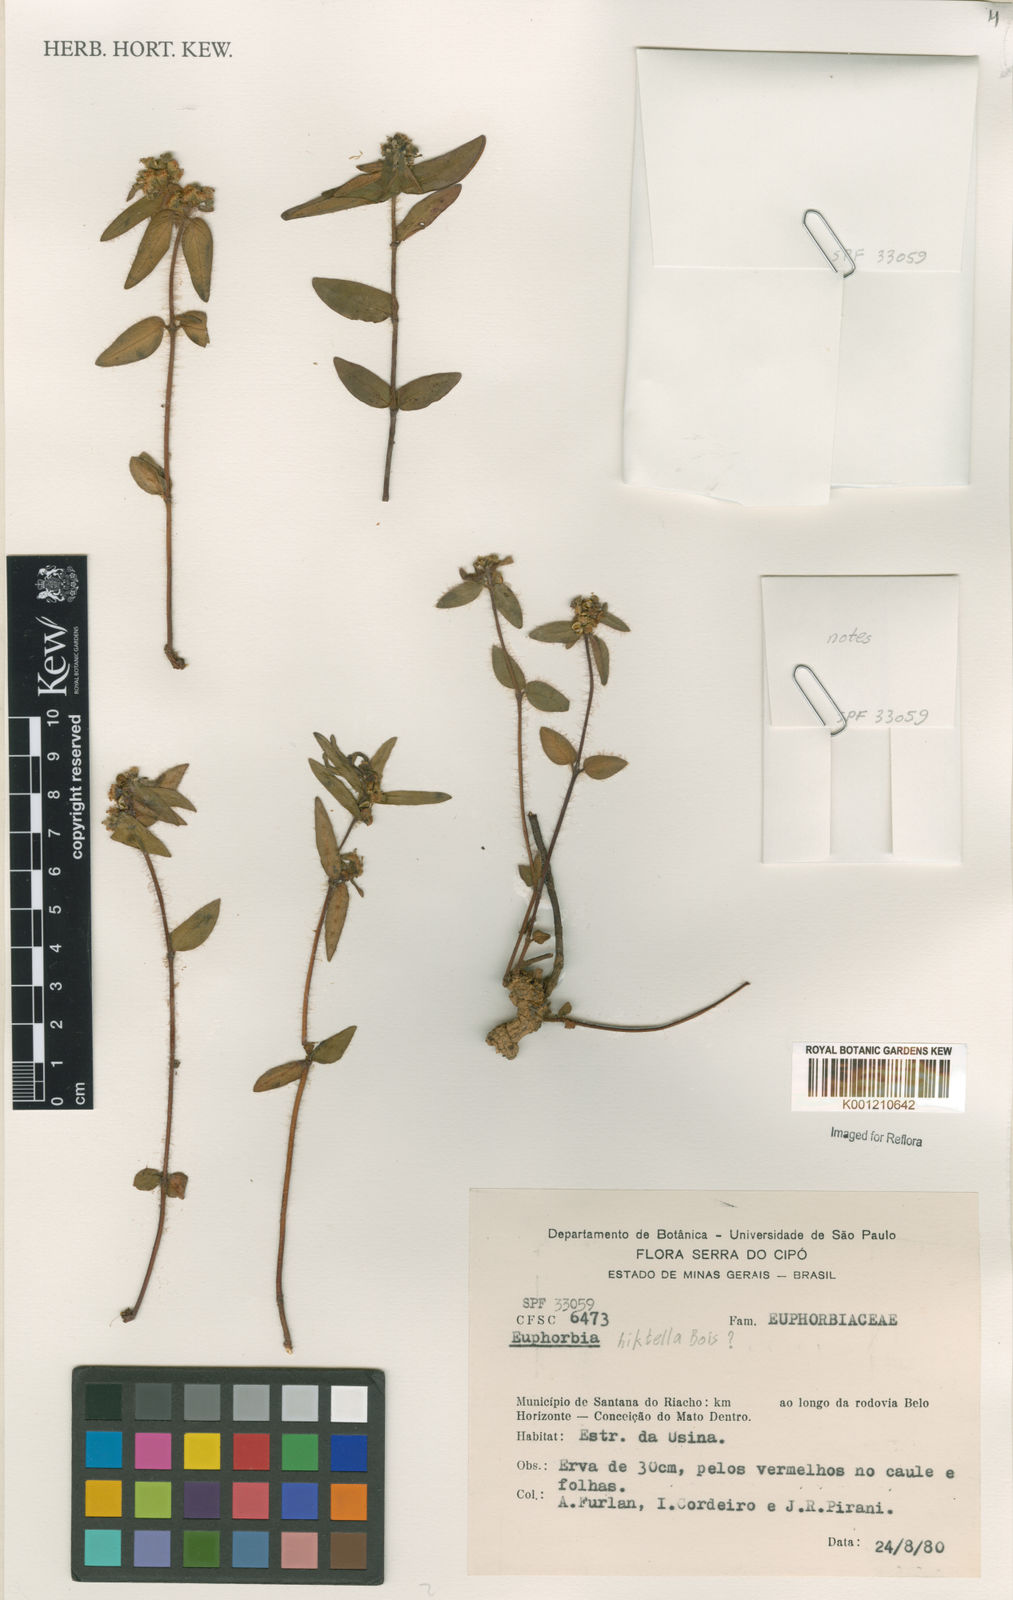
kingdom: Plantae
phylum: Tracheophyta
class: Magnoliopsida
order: Malpighiales
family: Euphorbiaceae
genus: Euphorbia
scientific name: Euphorbia hirtella
